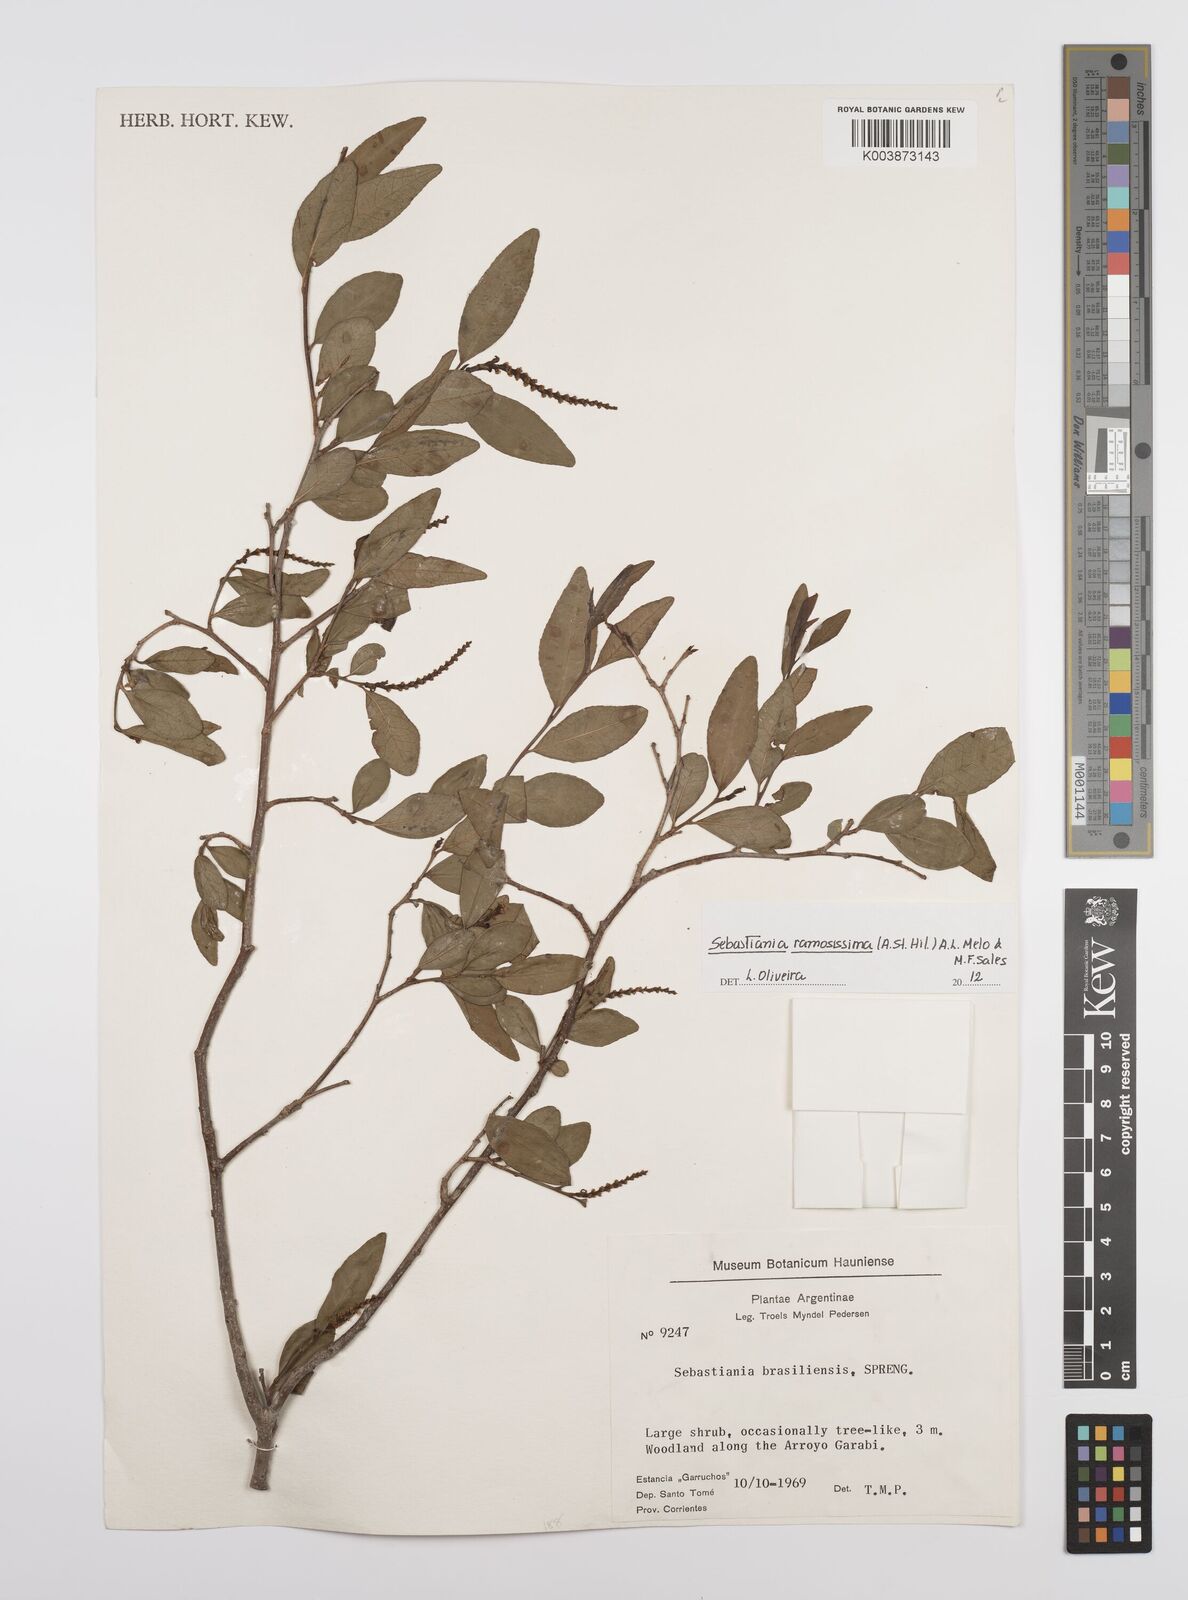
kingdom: Plantae
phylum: Tracheophyta
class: Magnoliopsida
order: Malpighiales
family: Euphorbiaceae
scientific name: Euphorbiaceae
